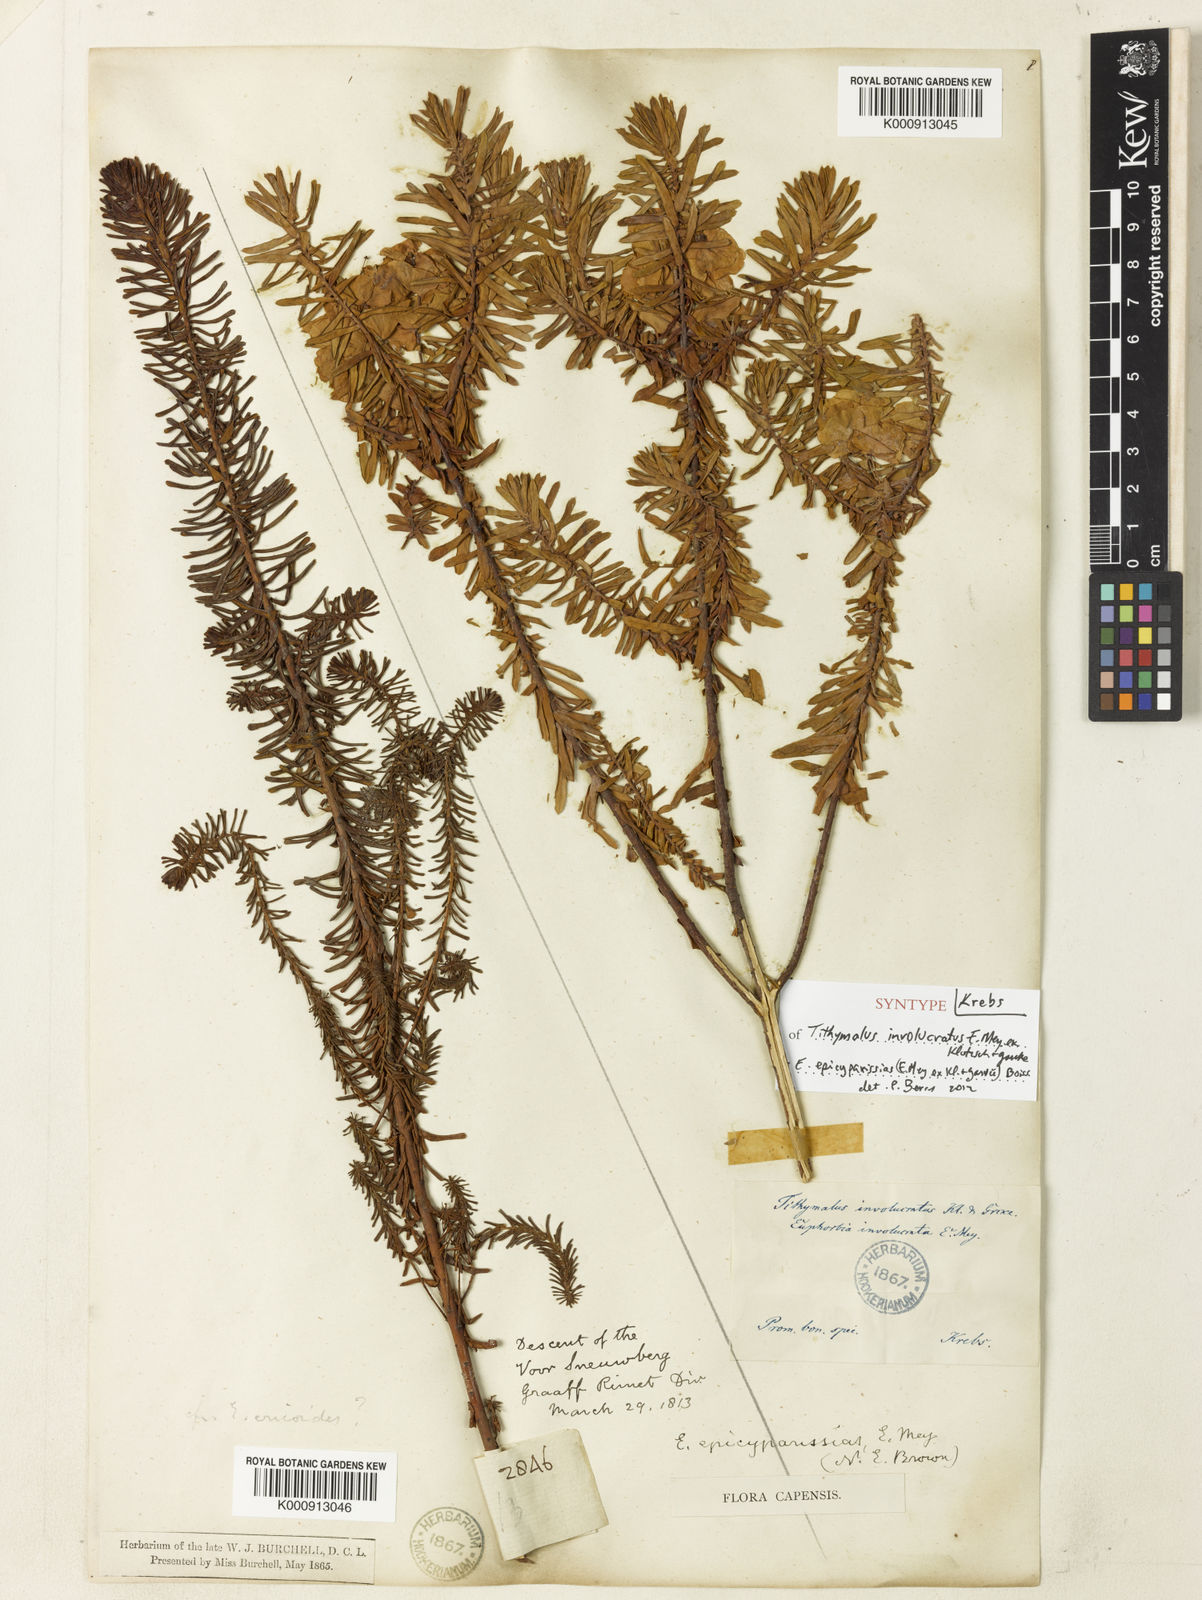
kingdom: Plantae
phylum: Tracheophyta
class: Magnoliopsida
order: Malpighiales
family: Euphorbiaceae
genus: Euphorbia
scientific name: Euphorbia natalensis
